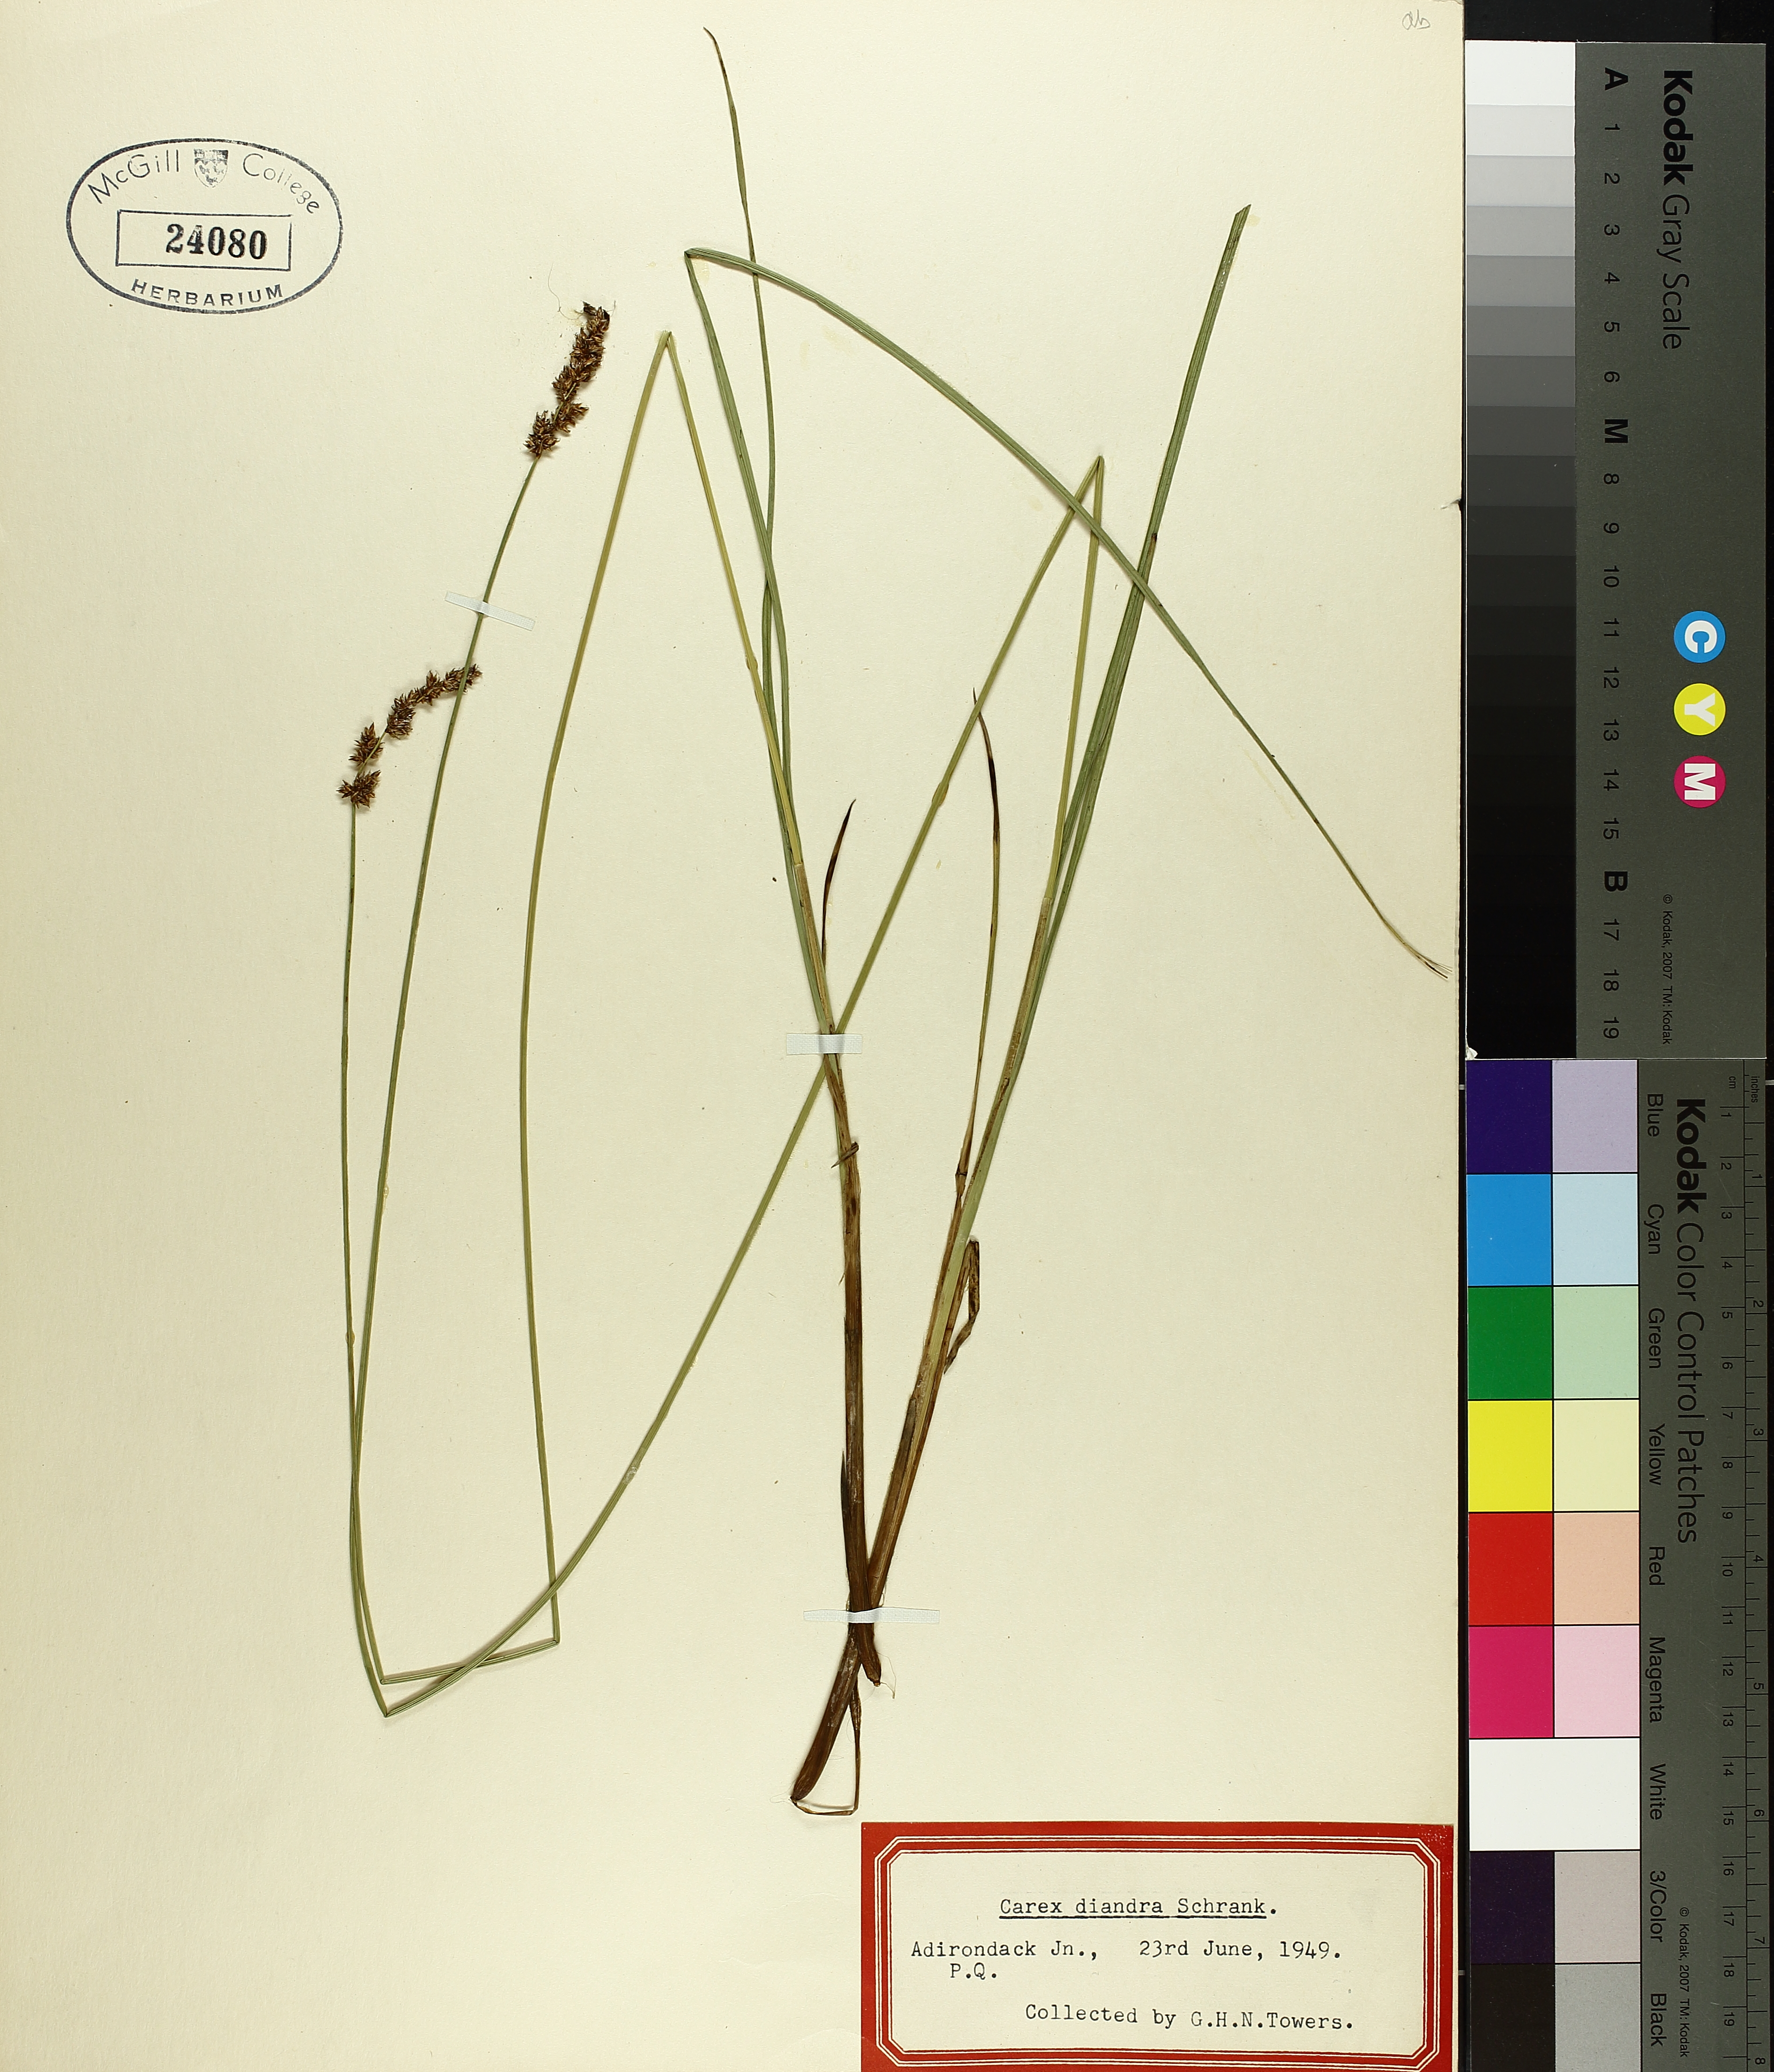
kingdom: Plantae
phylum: Tracheophyta
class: Liliopsida
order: Poales
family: Cyperaceae
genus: Carex
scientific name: Carex deweyana
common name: Dewey's sedge
